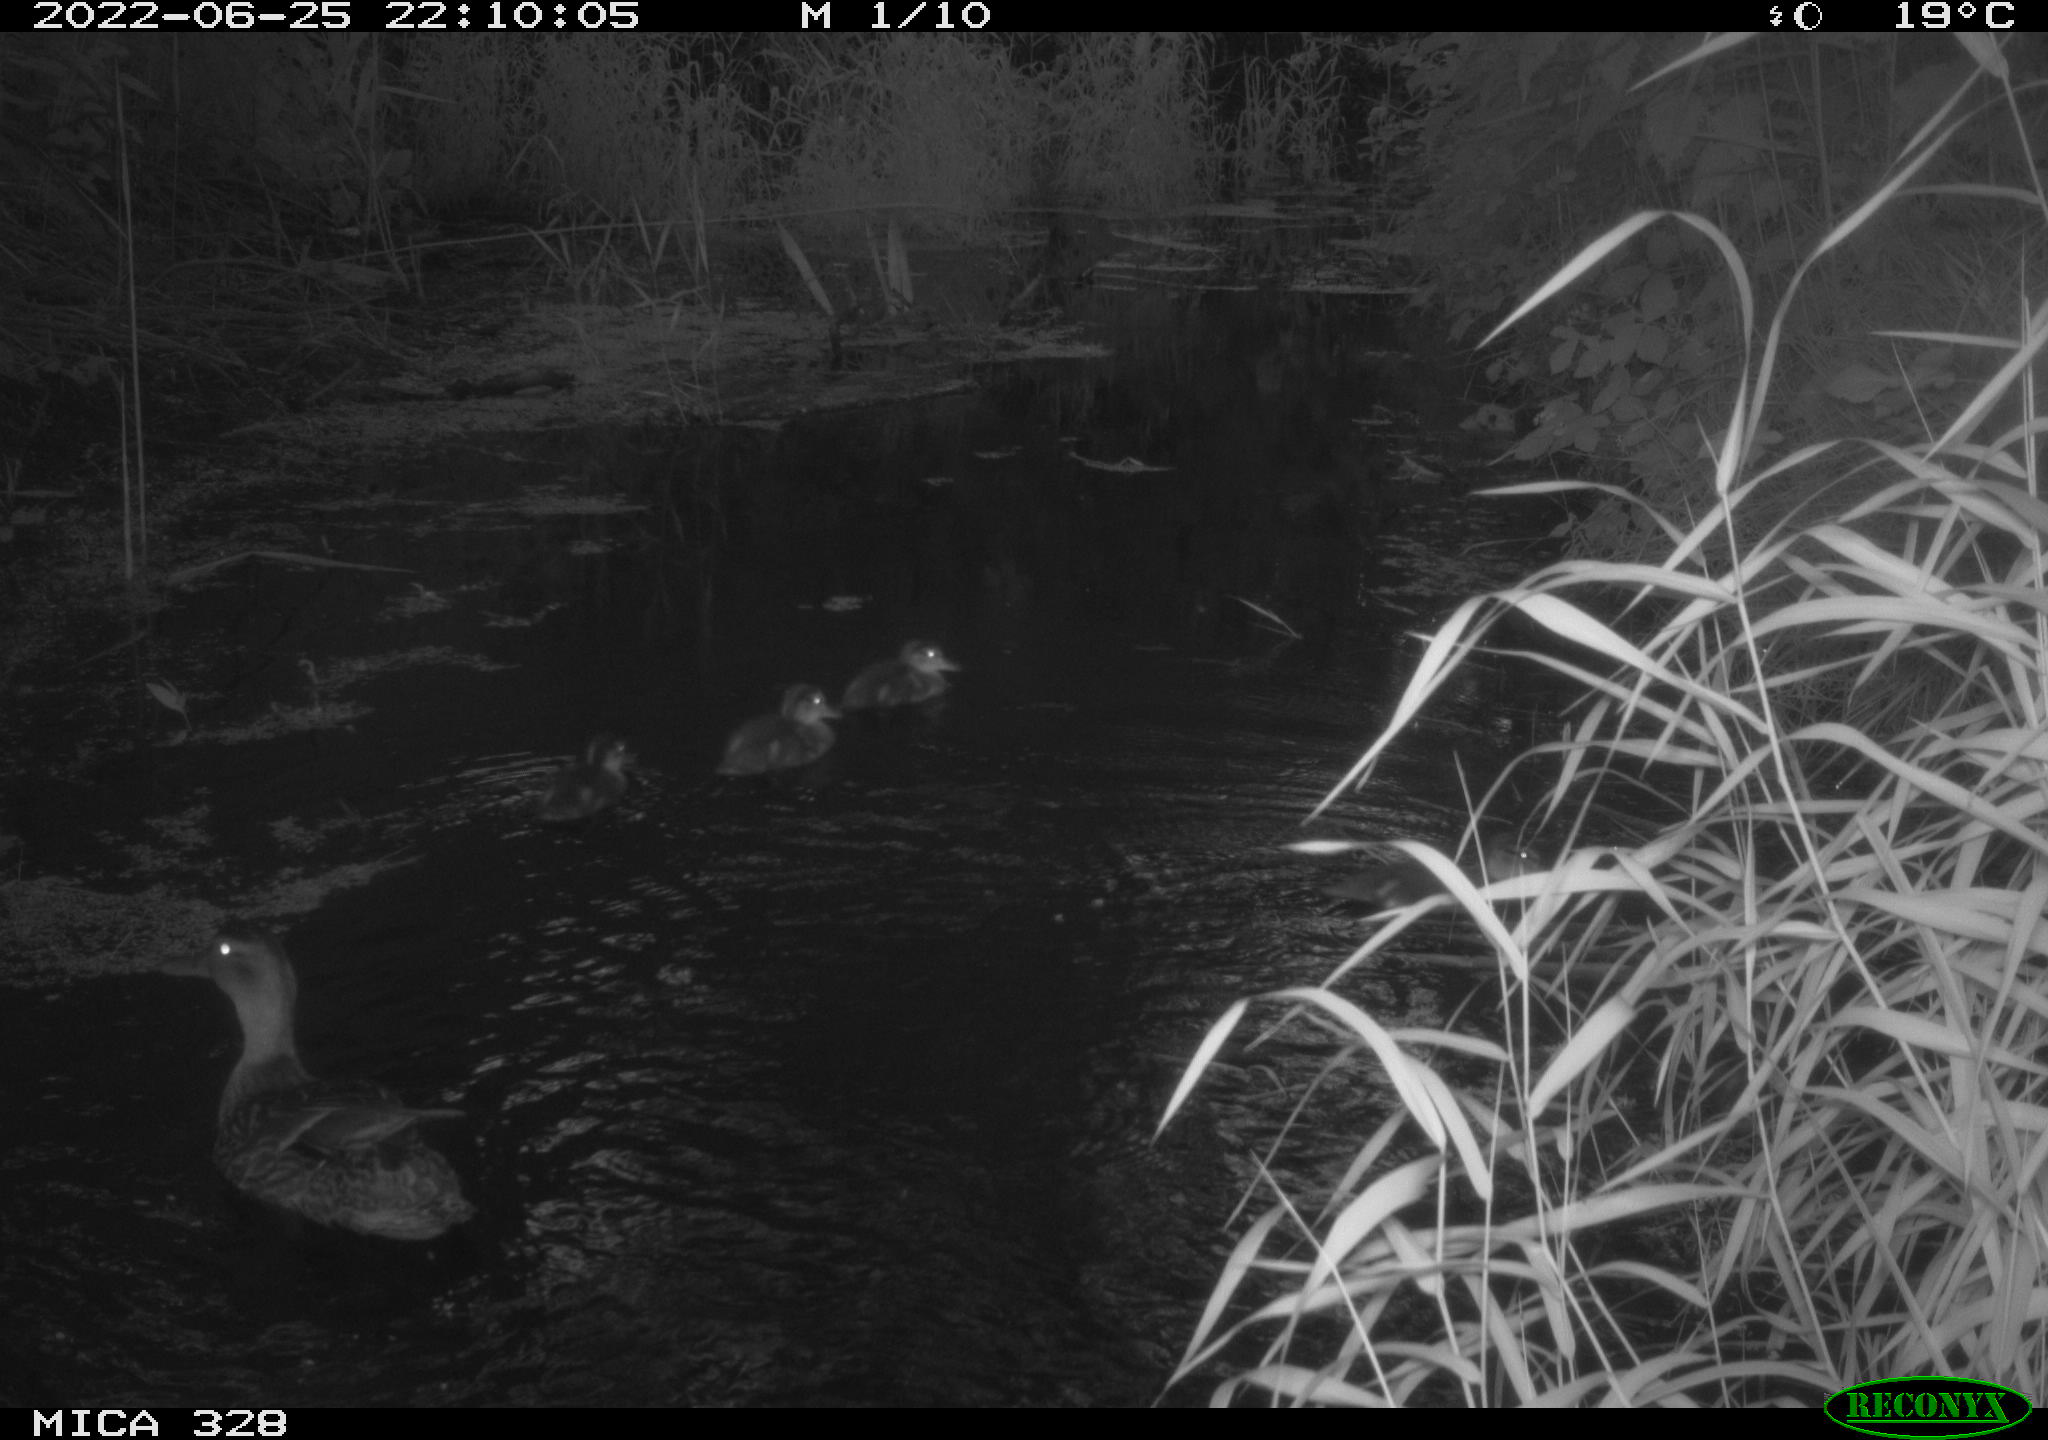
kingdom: Animalia
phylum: Chordata
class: Aves
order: Anseriformes
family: Anatidae
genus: Anas
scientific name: Anas platyrhynchos
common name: Mallard
